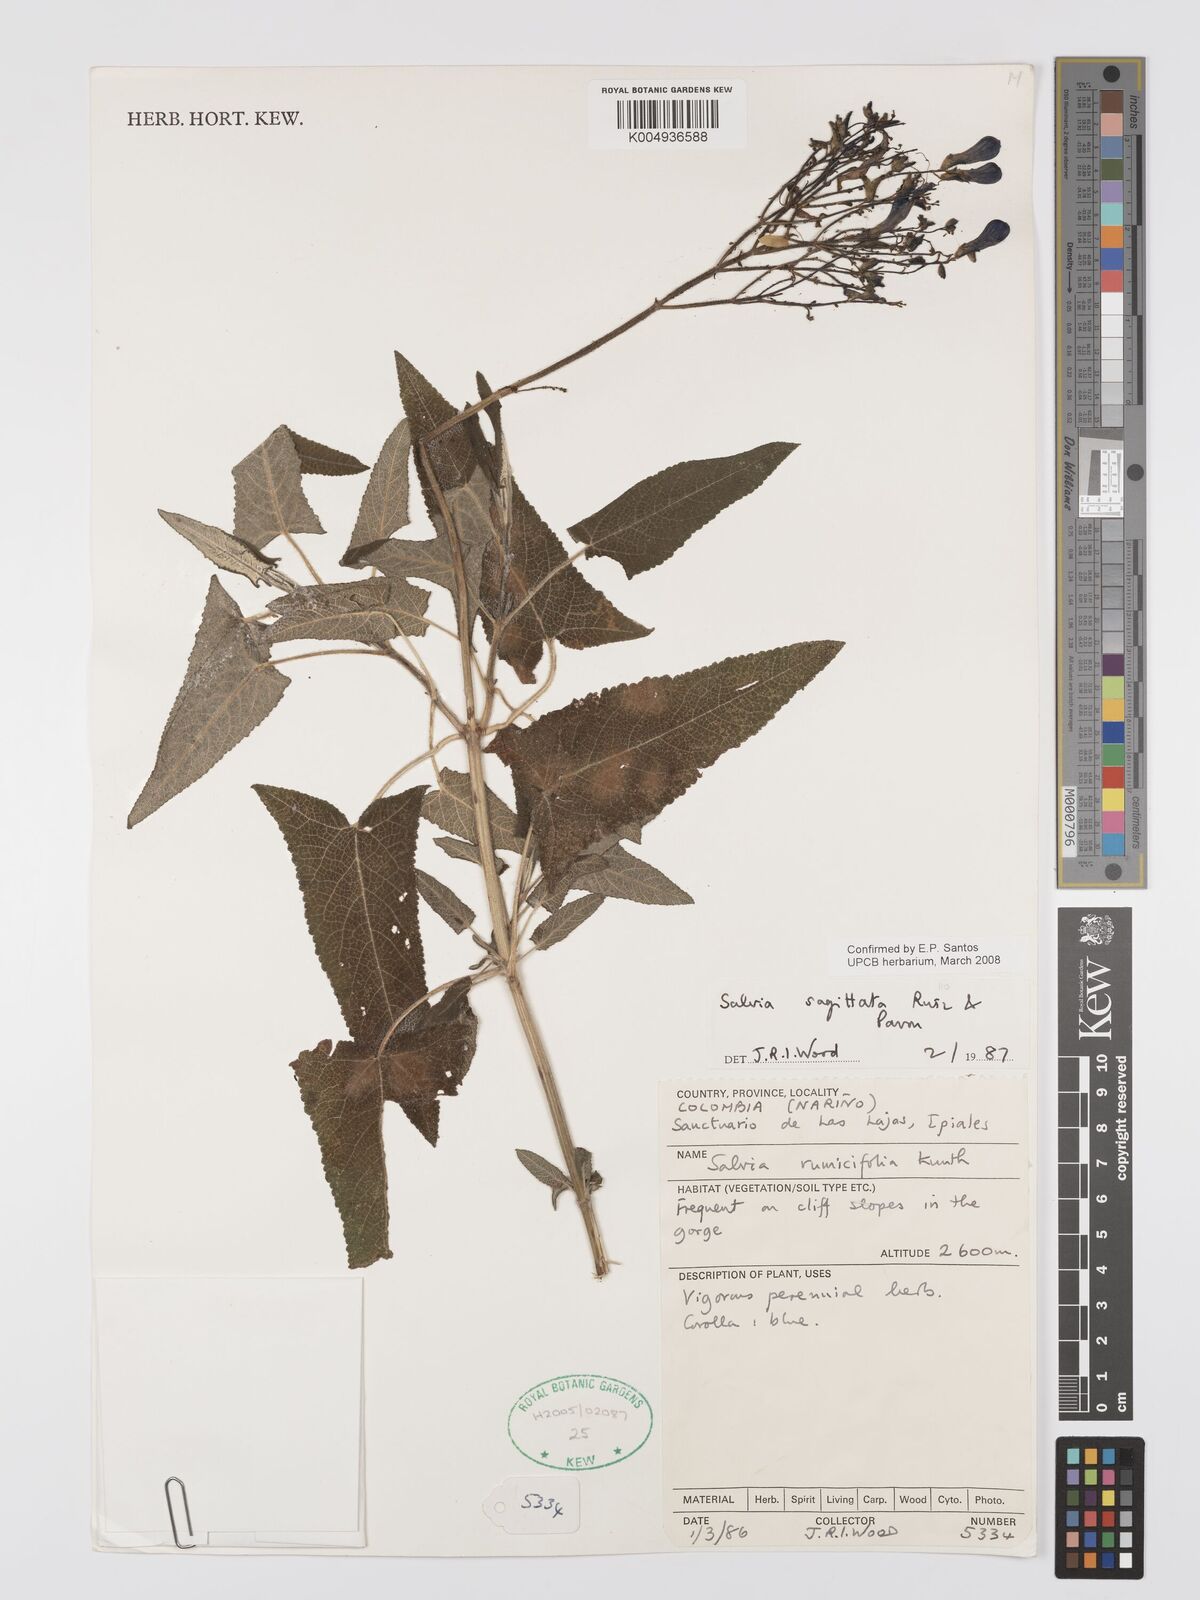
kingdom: Plantae
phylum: Tracheophyta
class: Magnoliopsida
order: Lamiales
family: Lamiaceae
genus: Salvia
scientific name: Salvia sagittata
